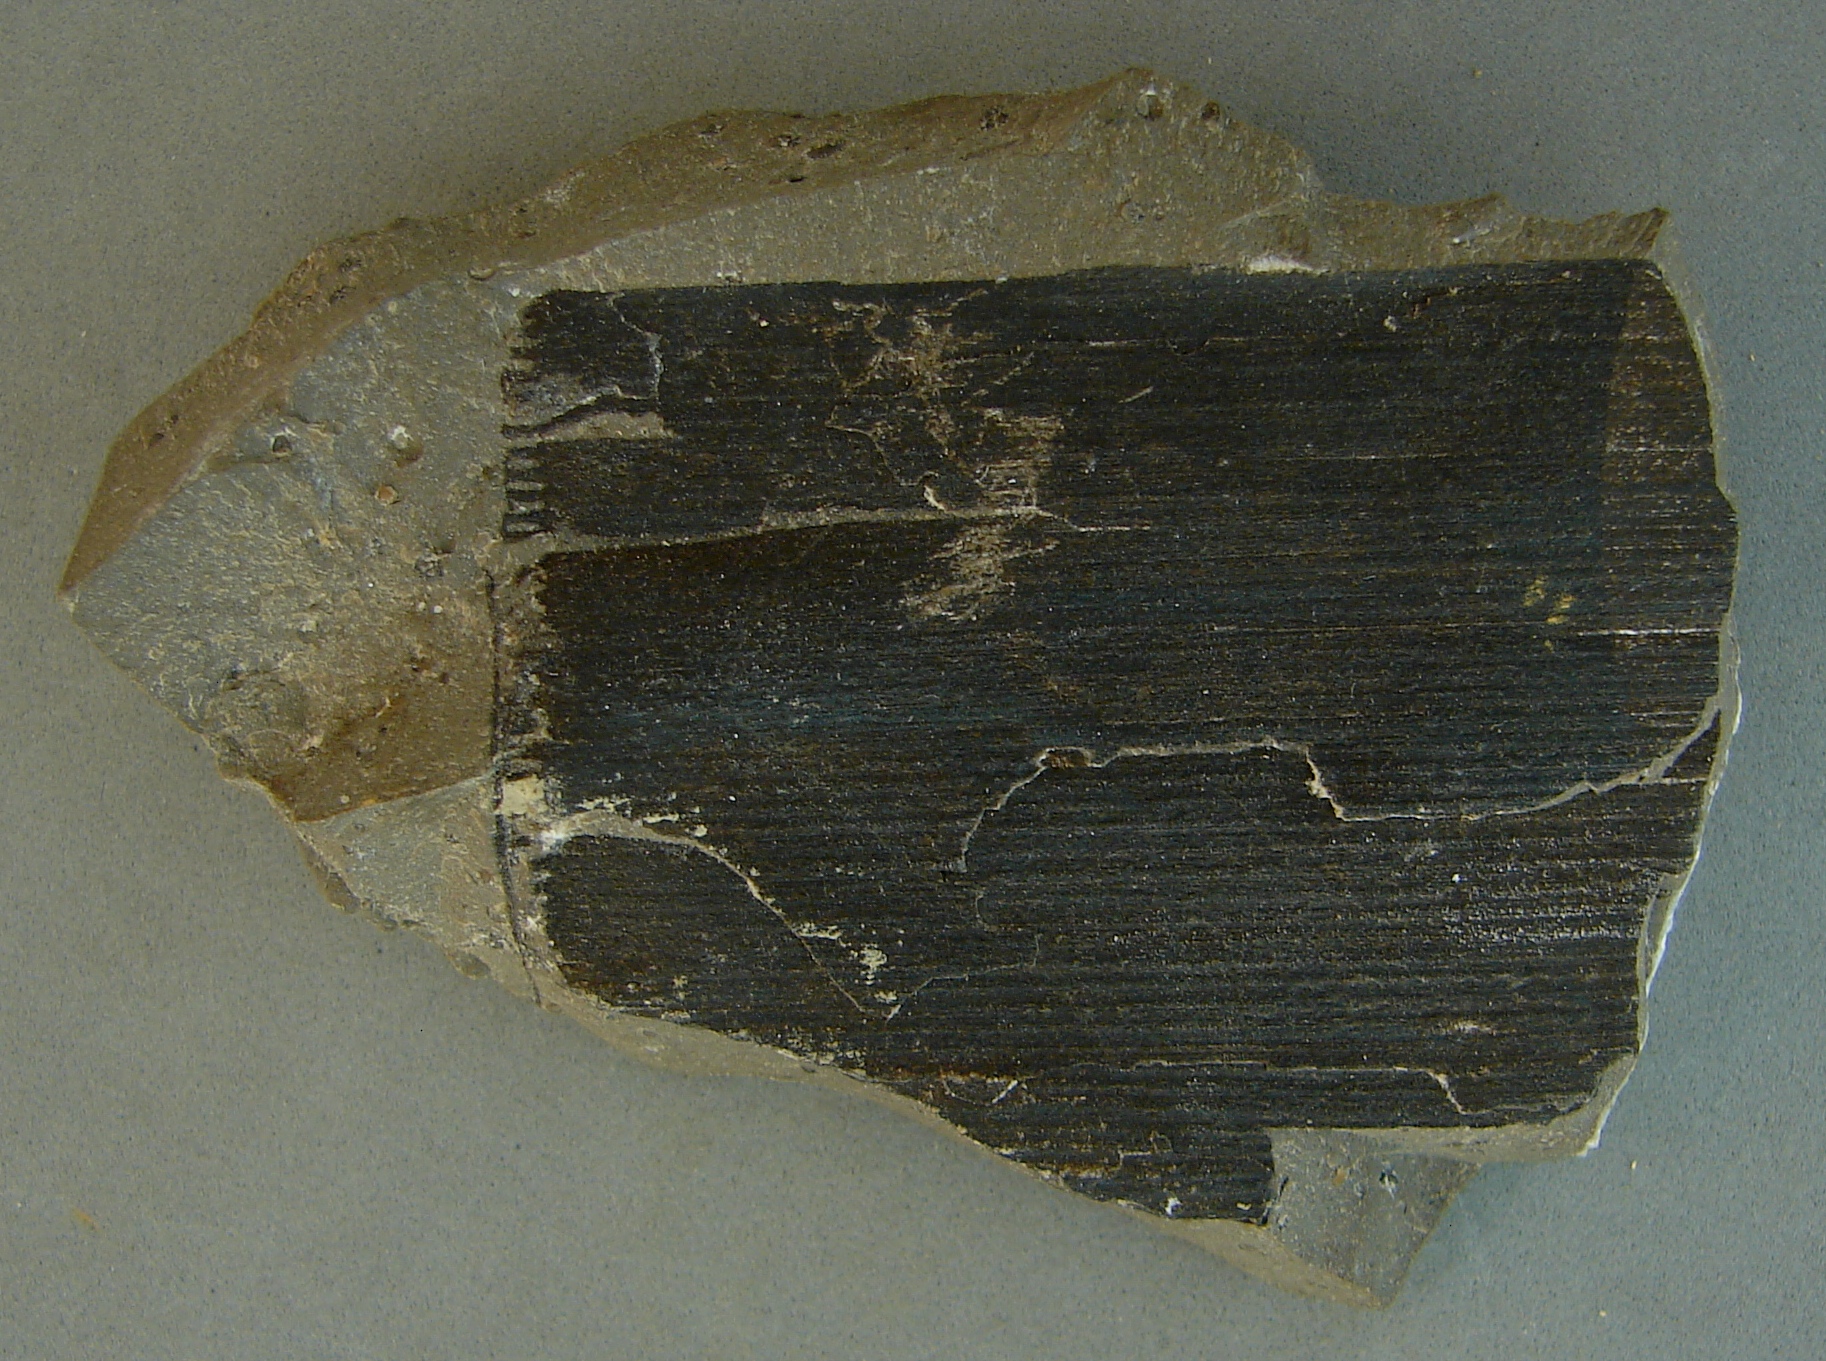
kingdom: Plantae
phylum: Tracheophyta
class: Polypodiopsida
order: Equisetales
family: Equisetaceae
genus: Equisetites
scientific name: Equisetites
